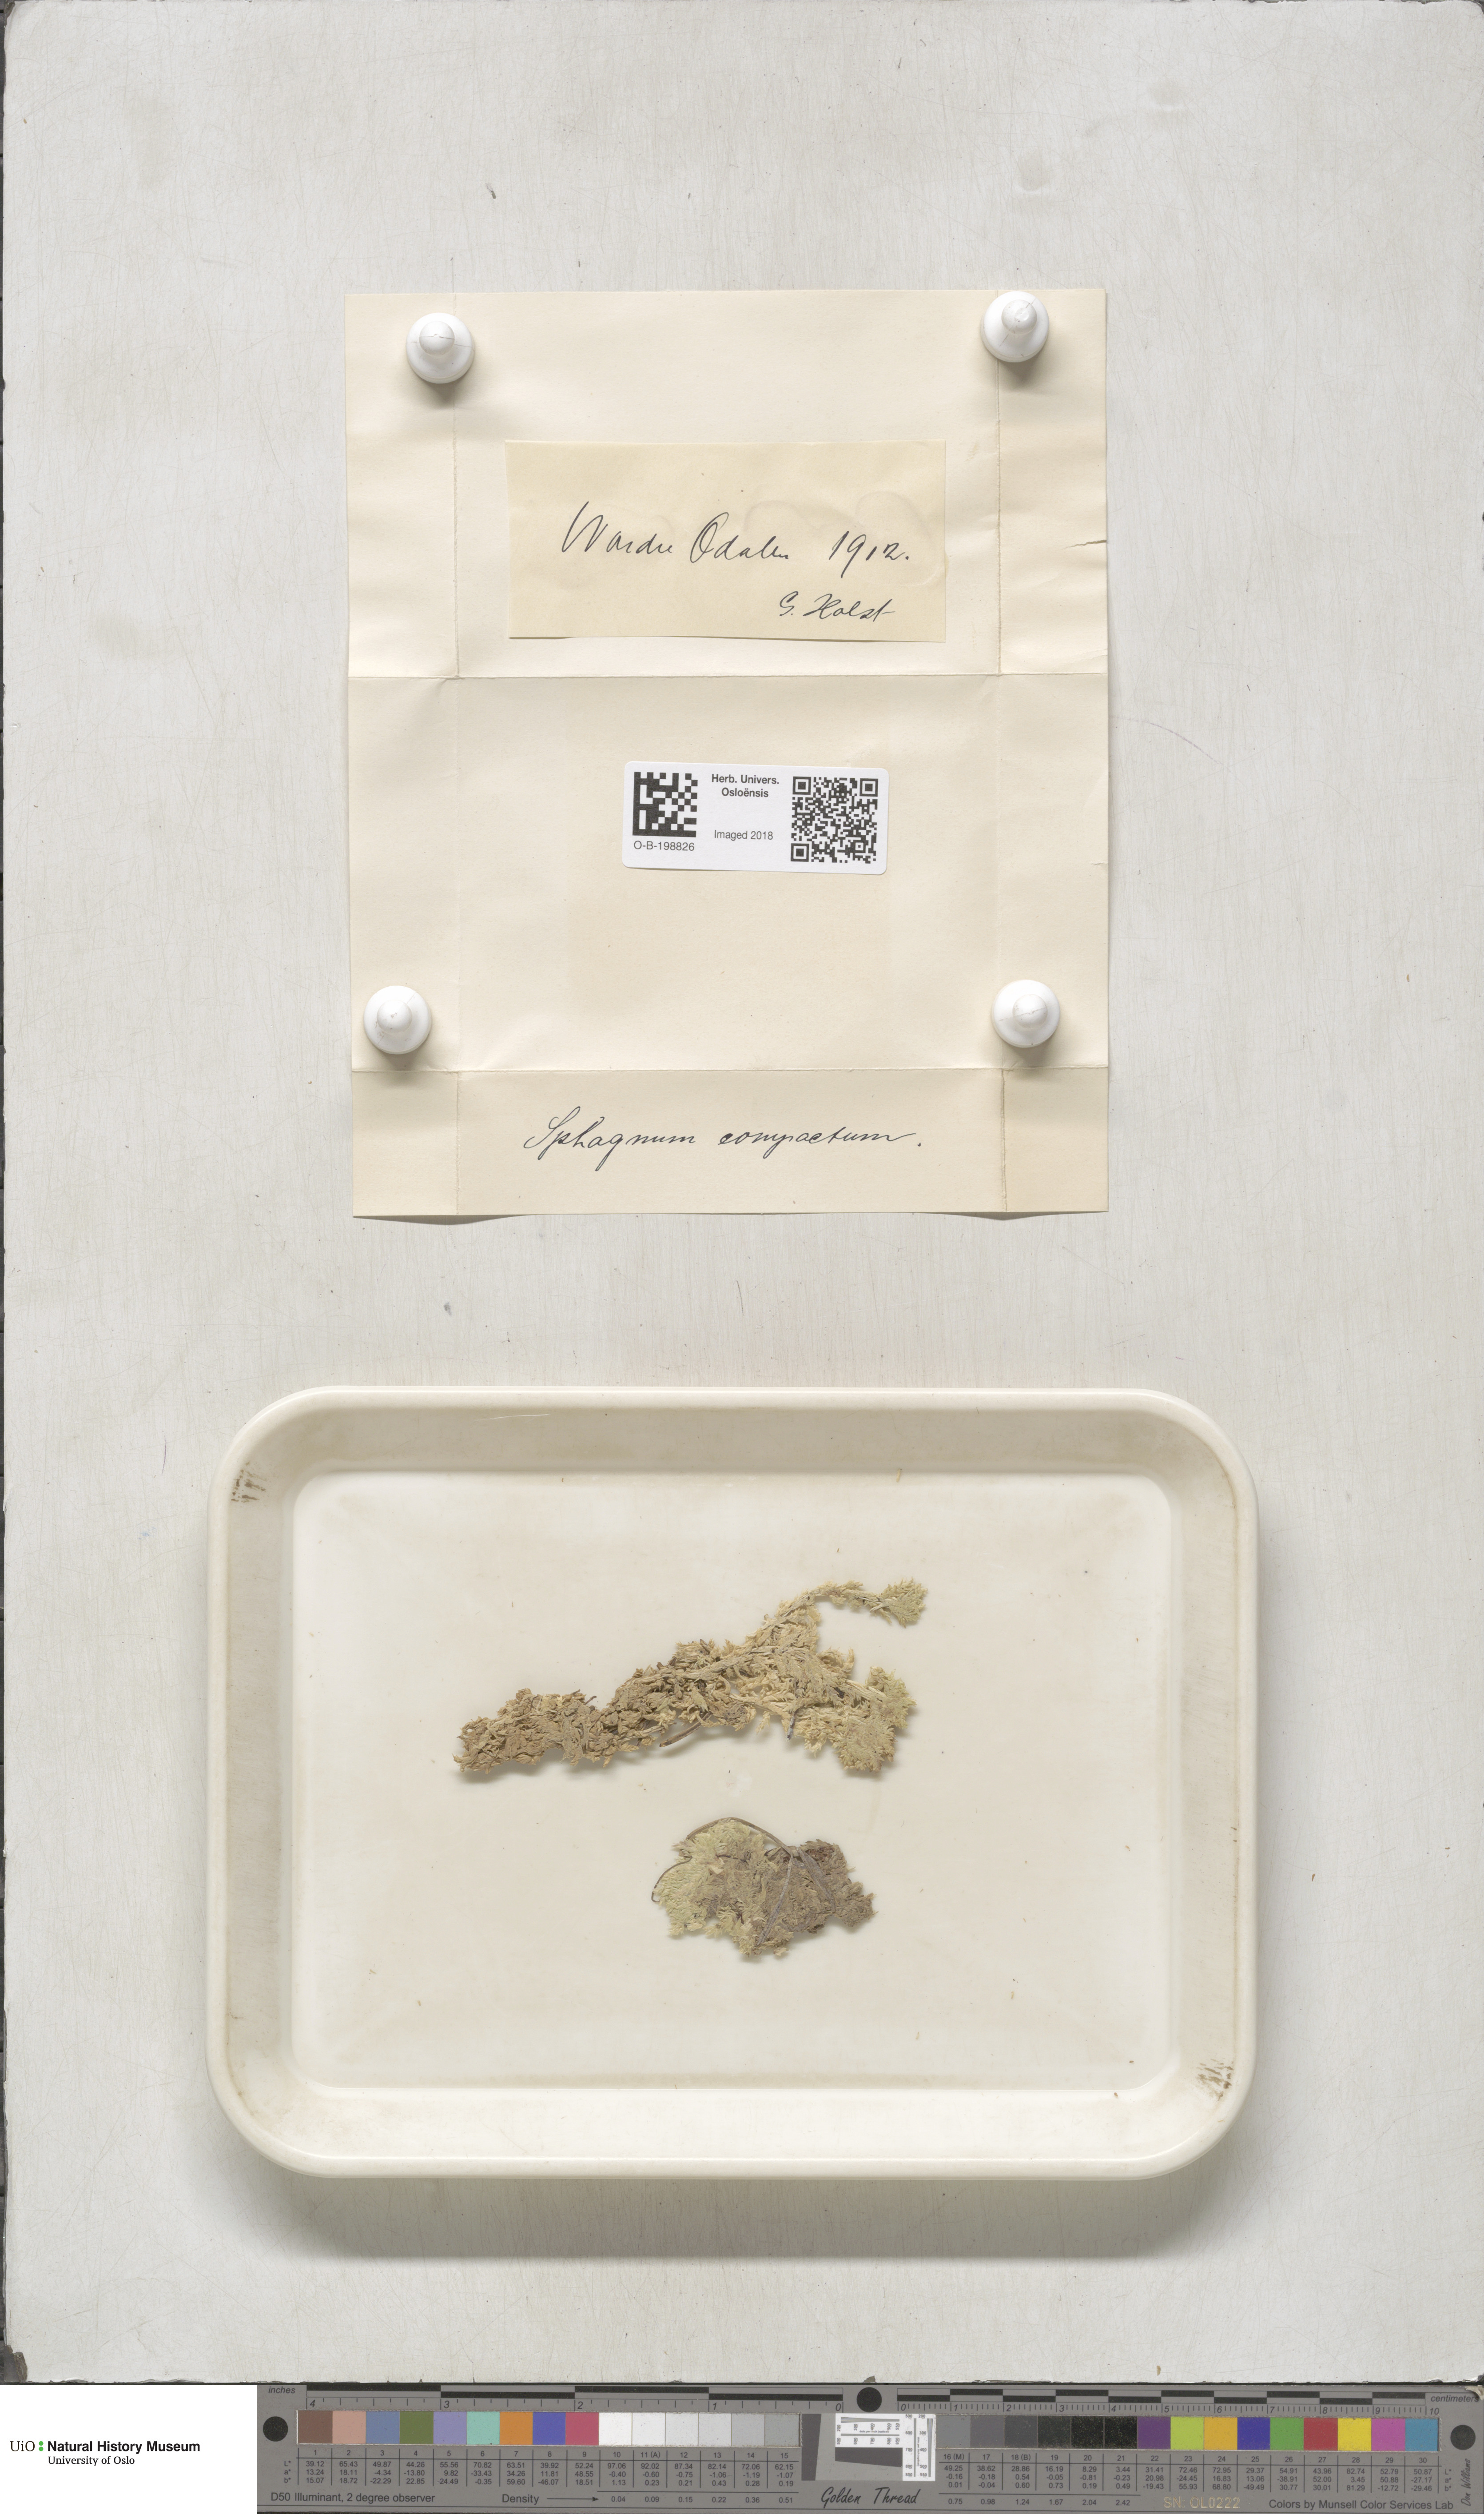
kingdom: Plantae
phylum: Bryophyta
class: Sphagnopsida
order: Sphagnales
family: Sphagnaceae
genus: Sphagnum
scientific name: Sphagnum compactum
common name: Compact peat moss
